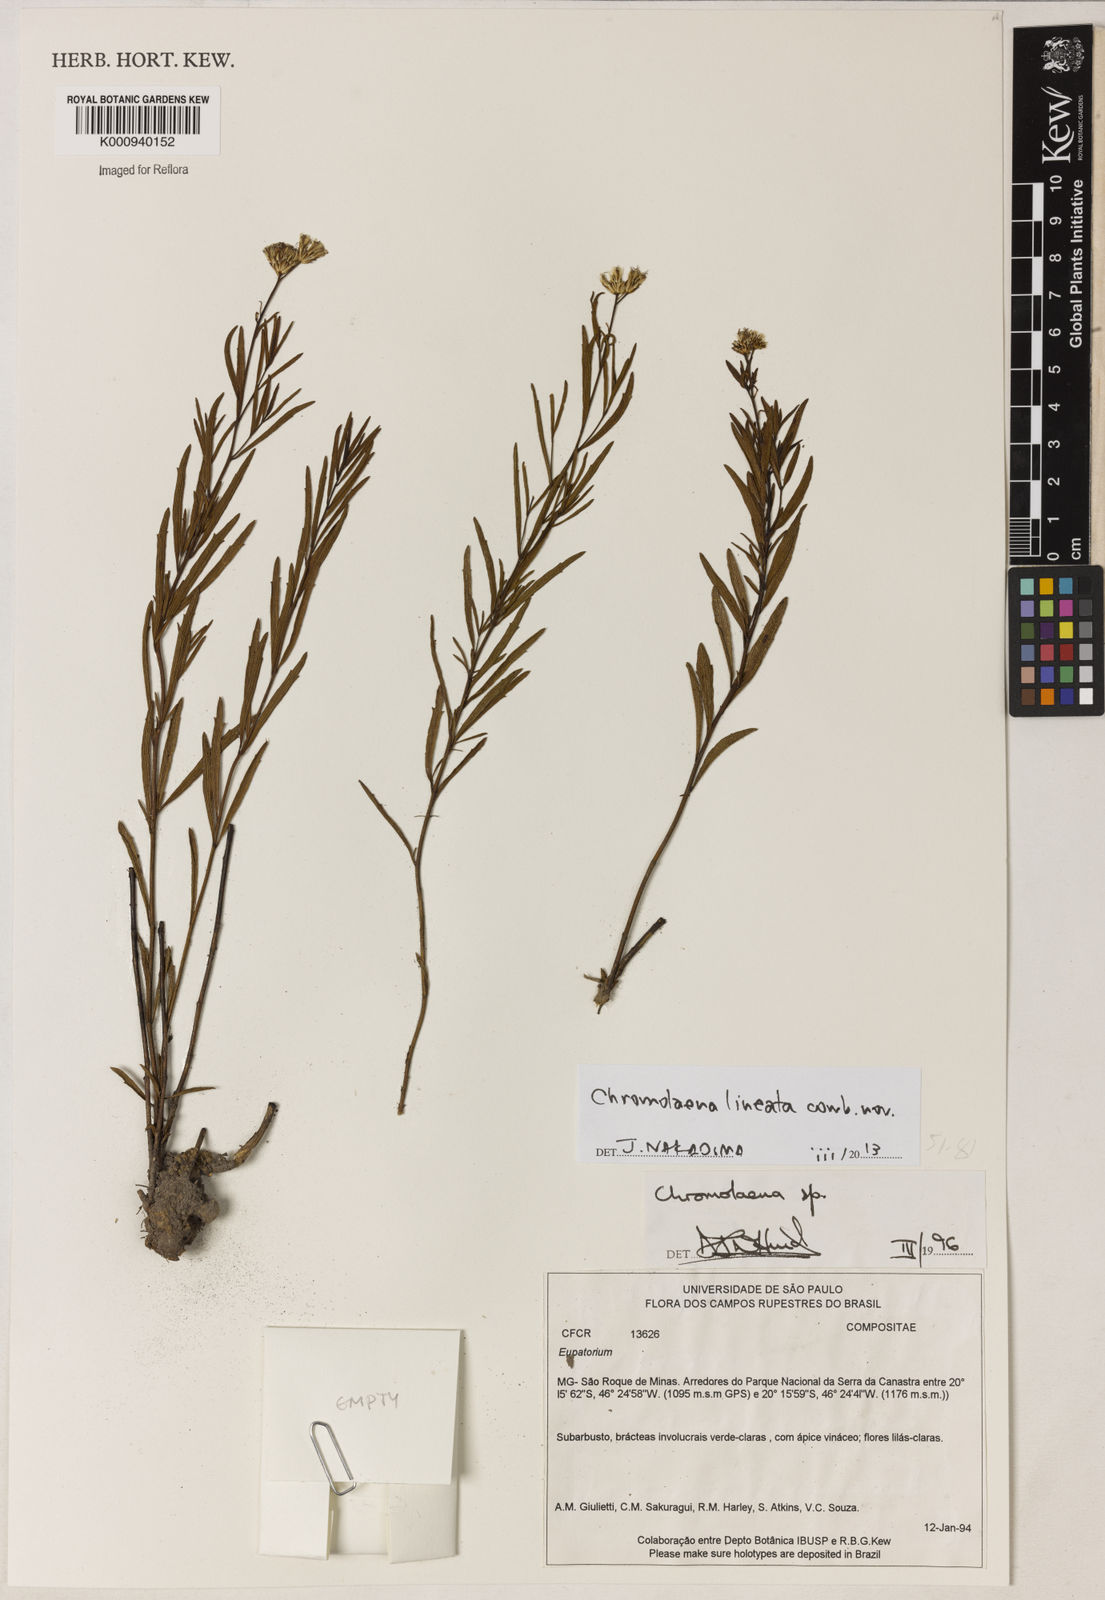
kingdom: Plantae
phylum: Tracheophyta
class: Magnoliopsida
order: Asterales
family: Asteraceae
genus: Chromolaena
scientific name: Chromolaena
